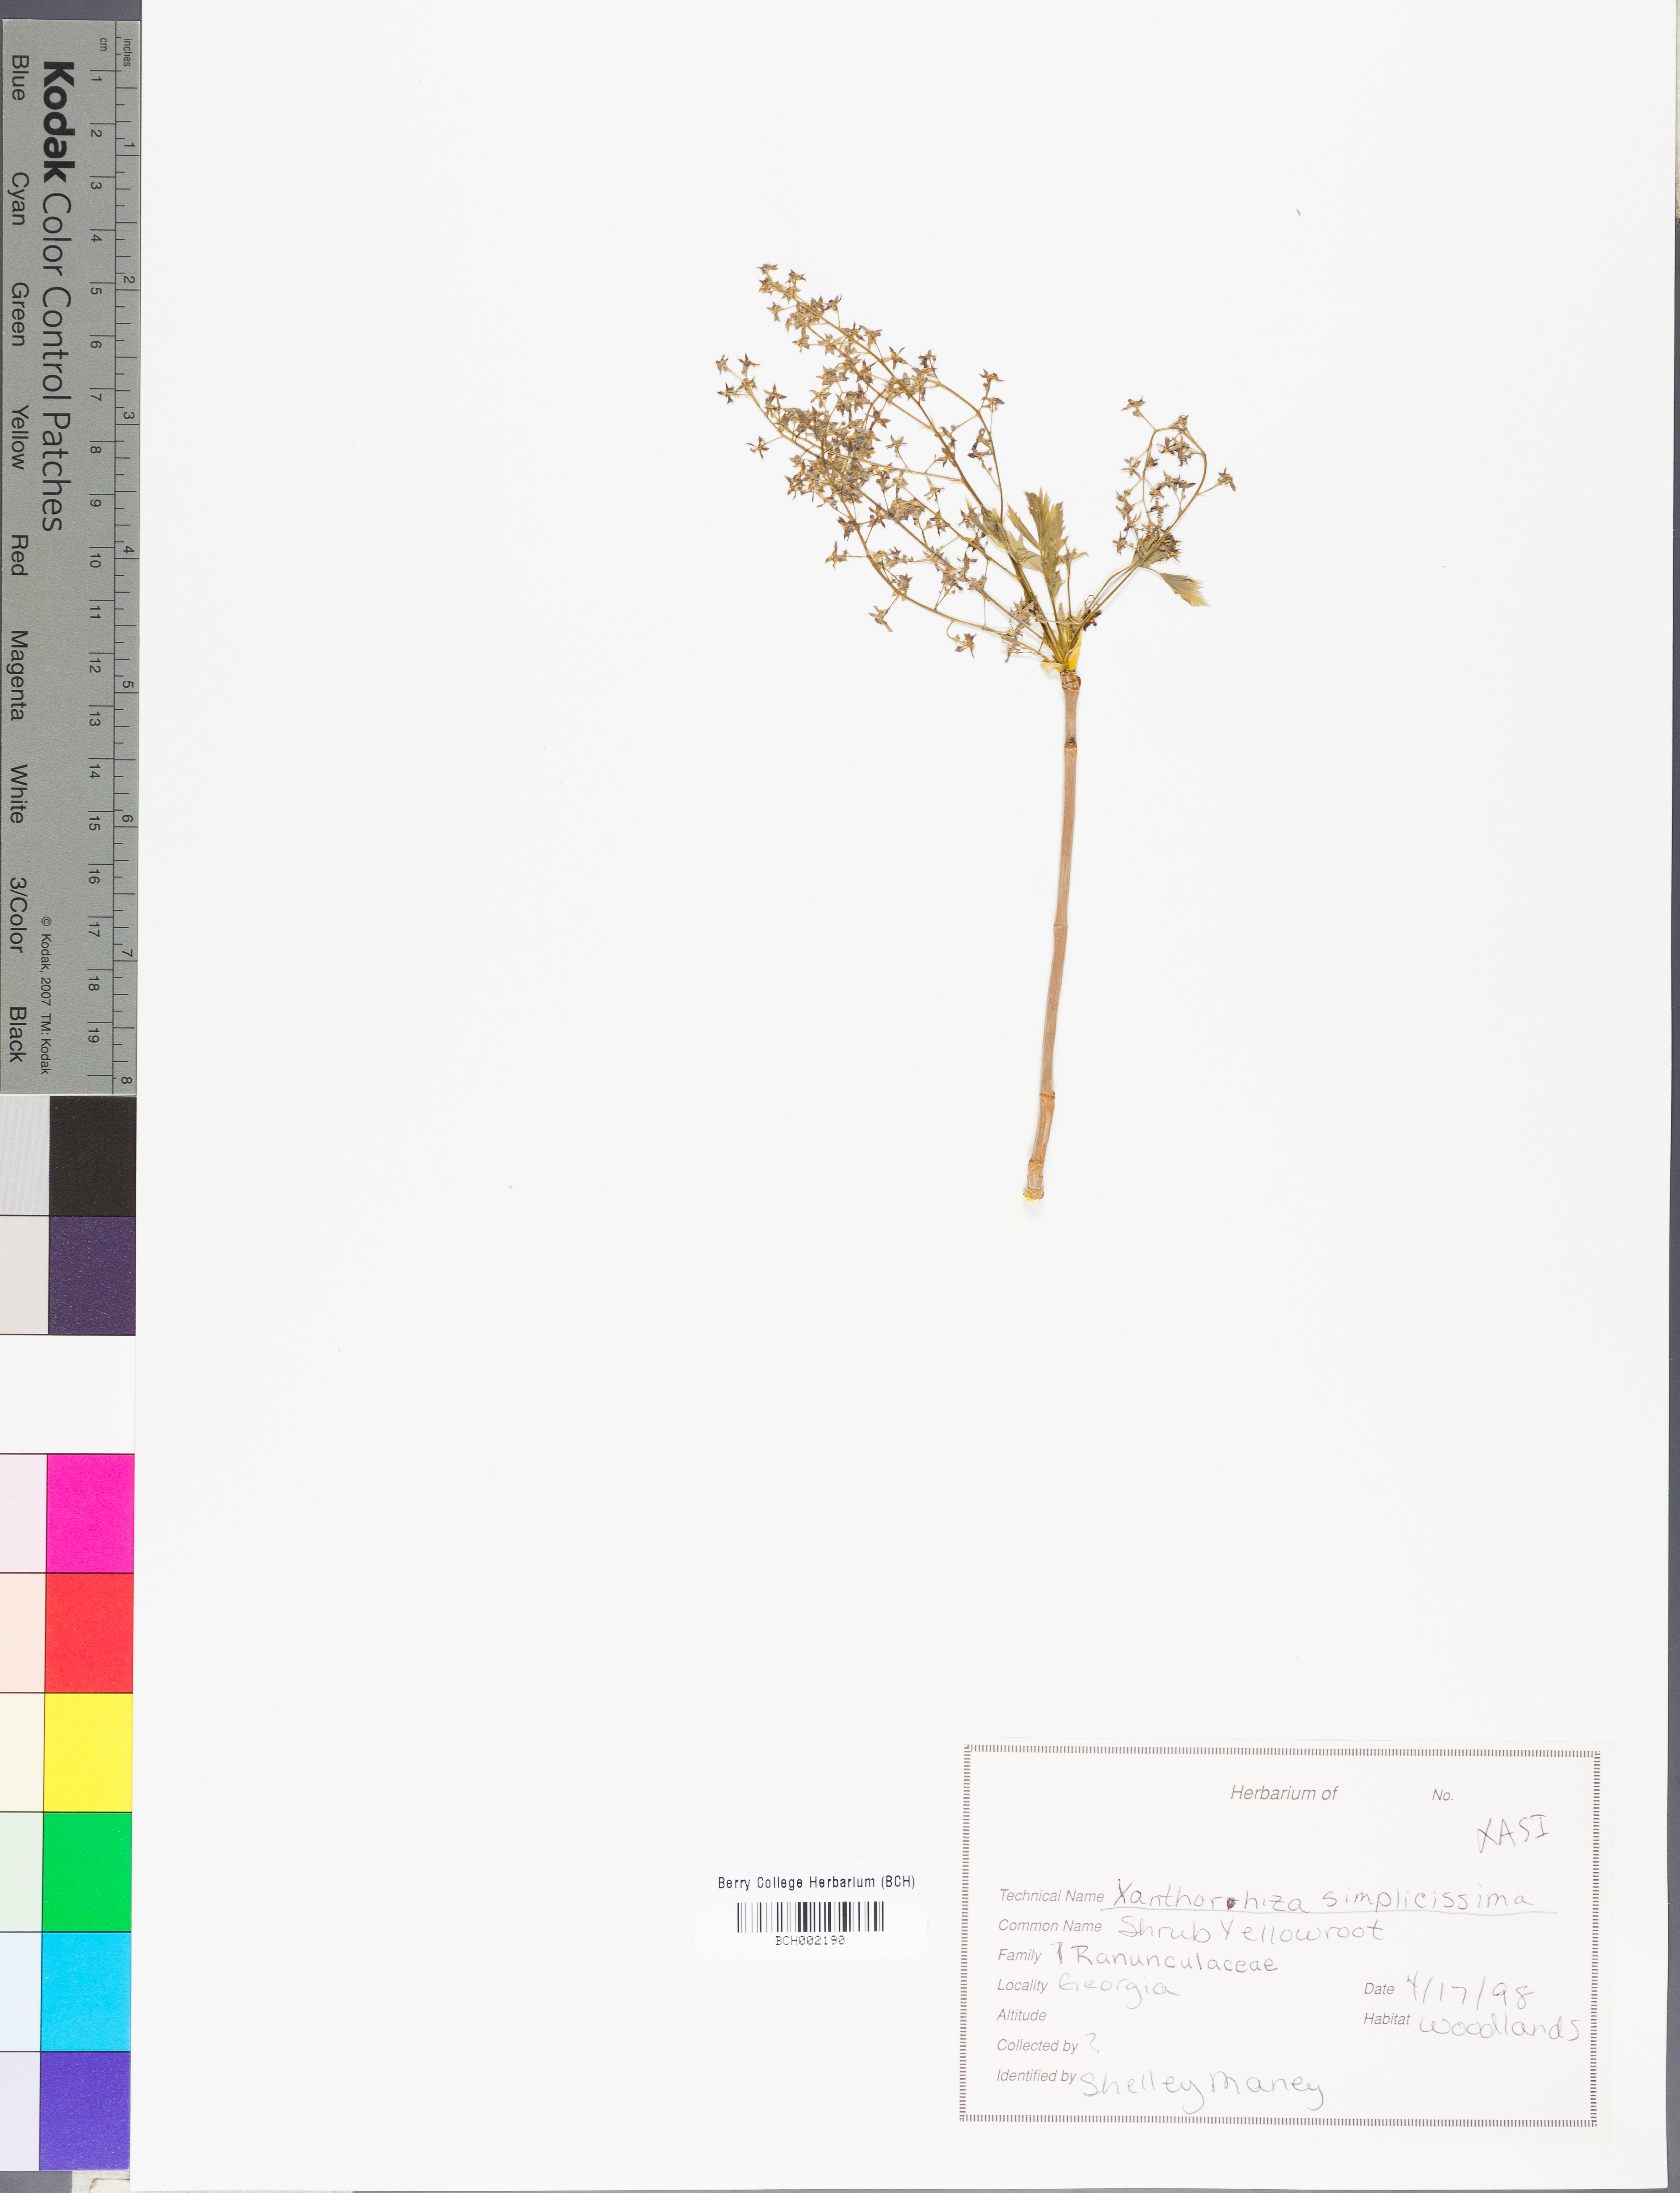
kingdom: Plantae
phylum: Tracheophyta
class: Magnoliopsida
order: Ranunculales
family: Ranunculaceae
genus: Xanthorhiza
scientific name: Xanthorhiza simplicissima
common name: Yellowroot
